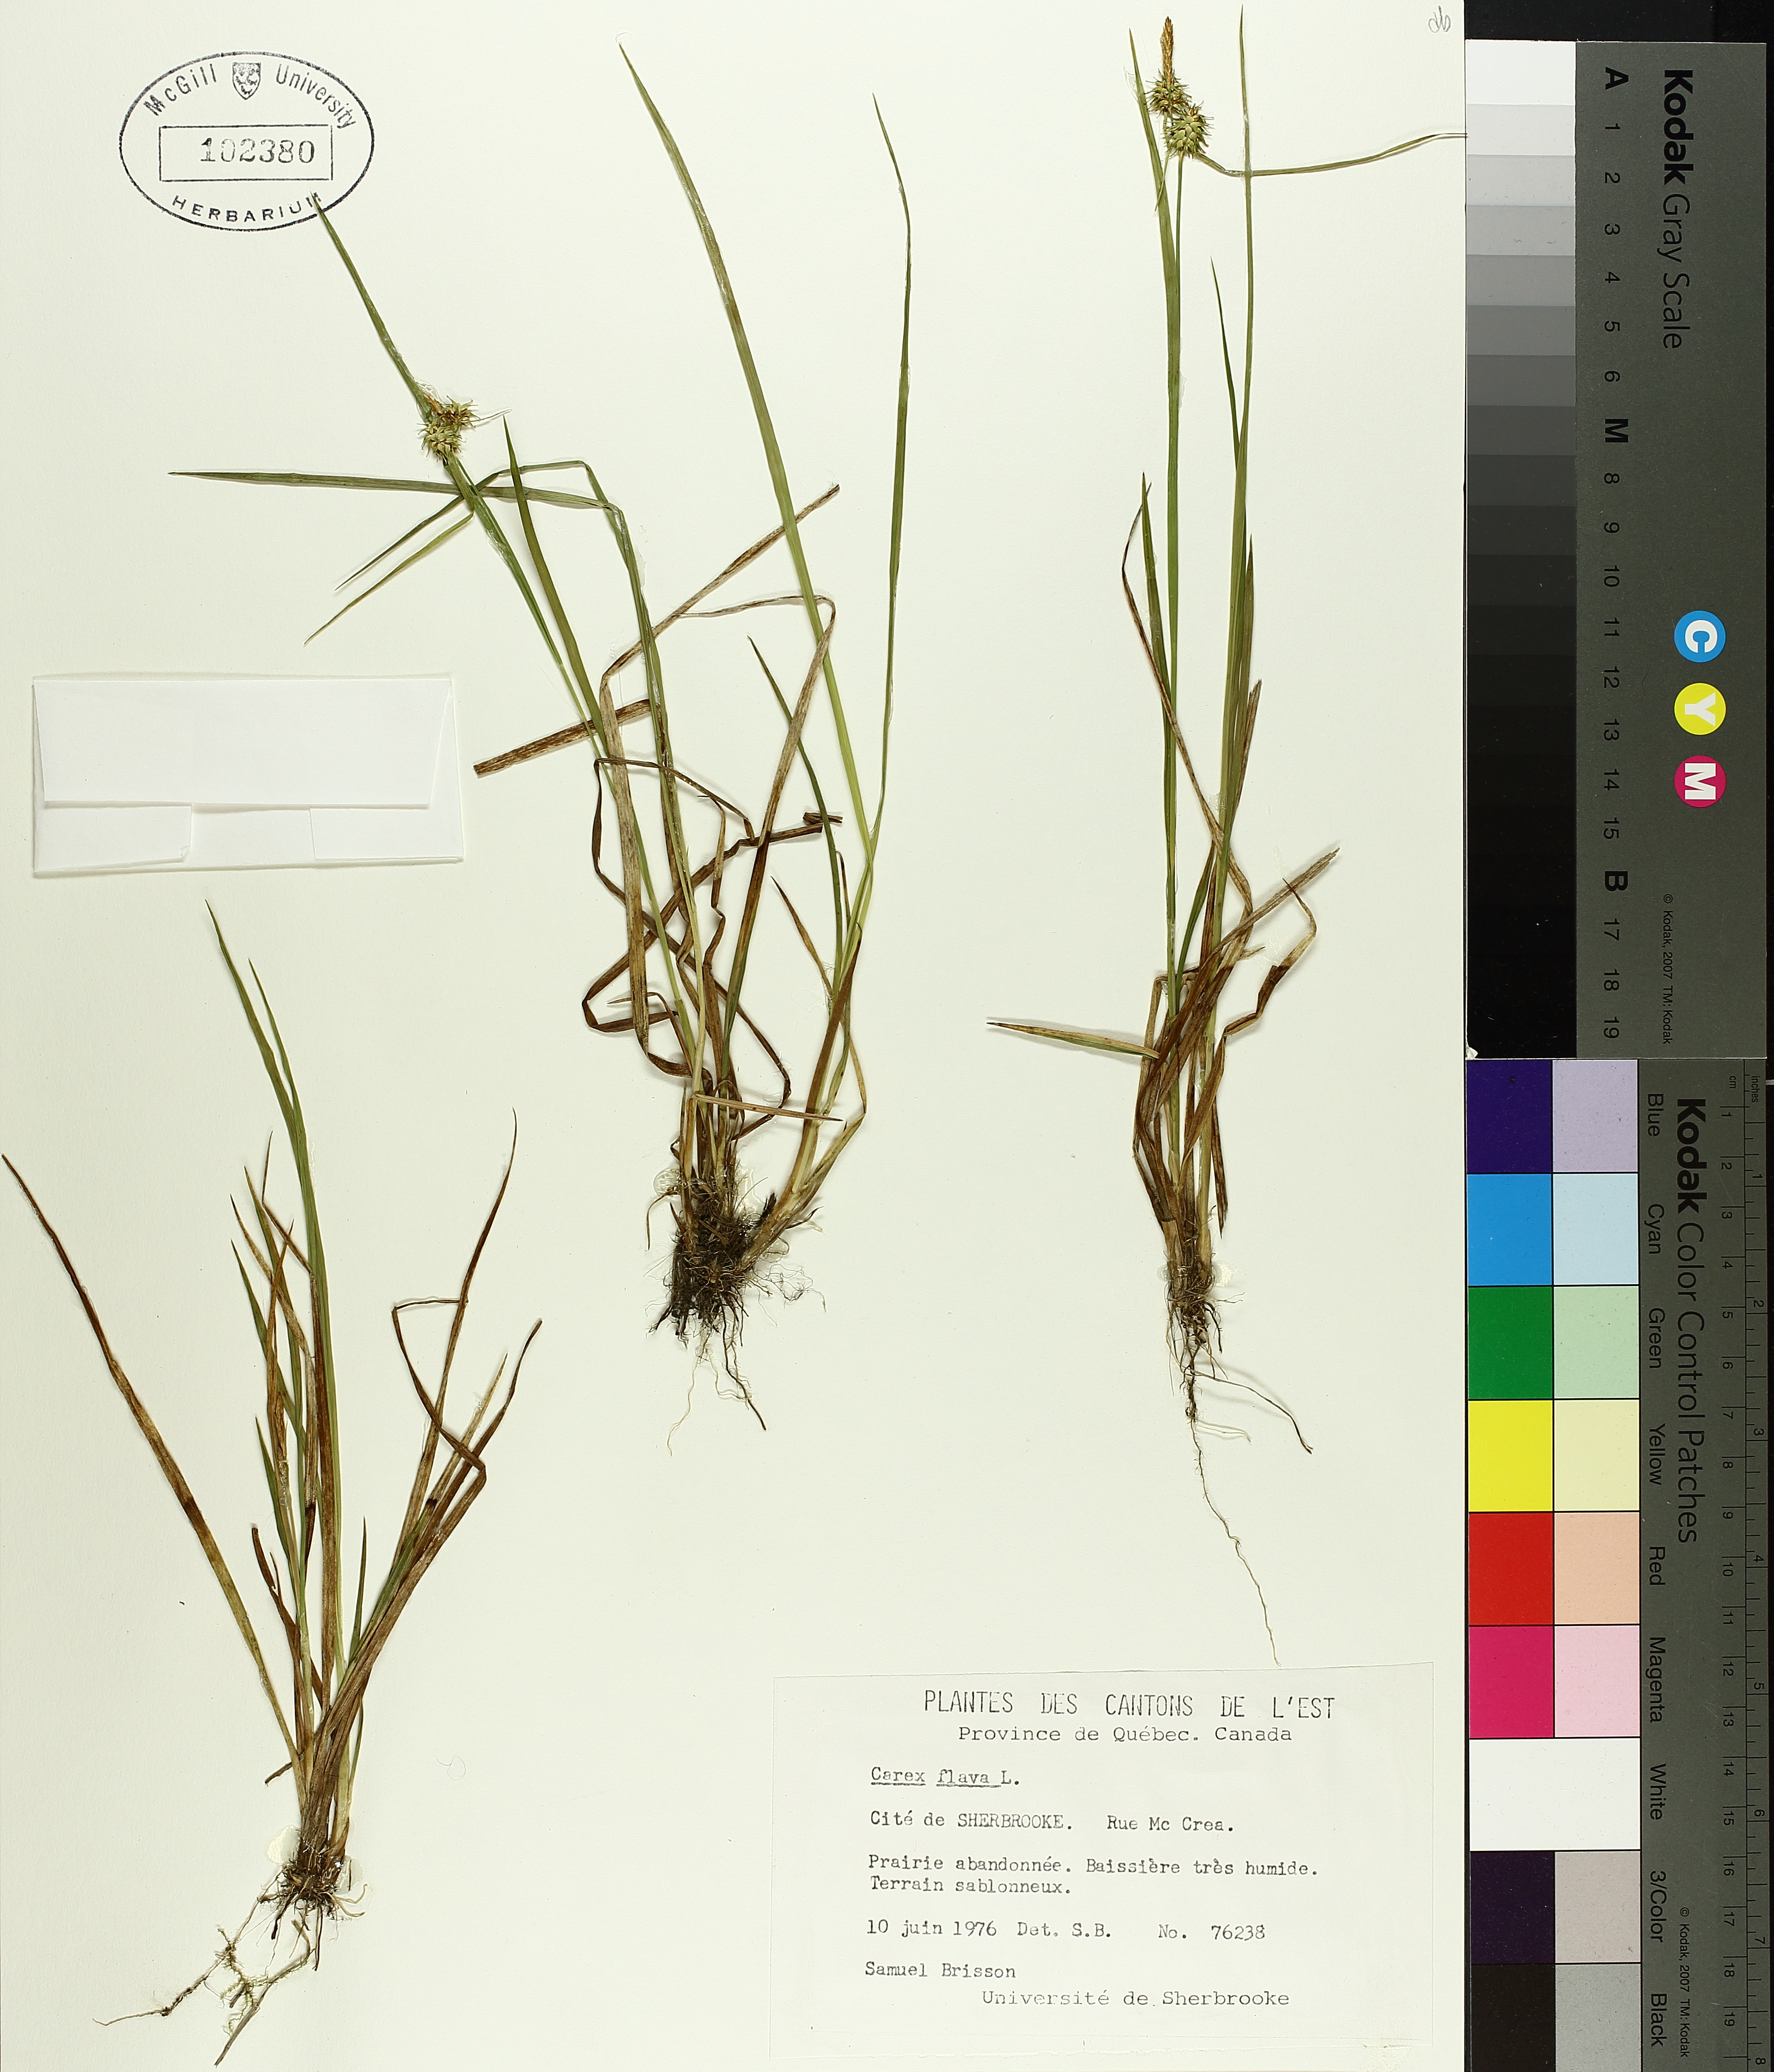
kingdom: Plantae
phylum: Tracheophyta
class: Liliopsida
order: Poales
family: Cyperaceae
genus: Carex
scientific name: Carex flava
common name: Large yellow-sedge
